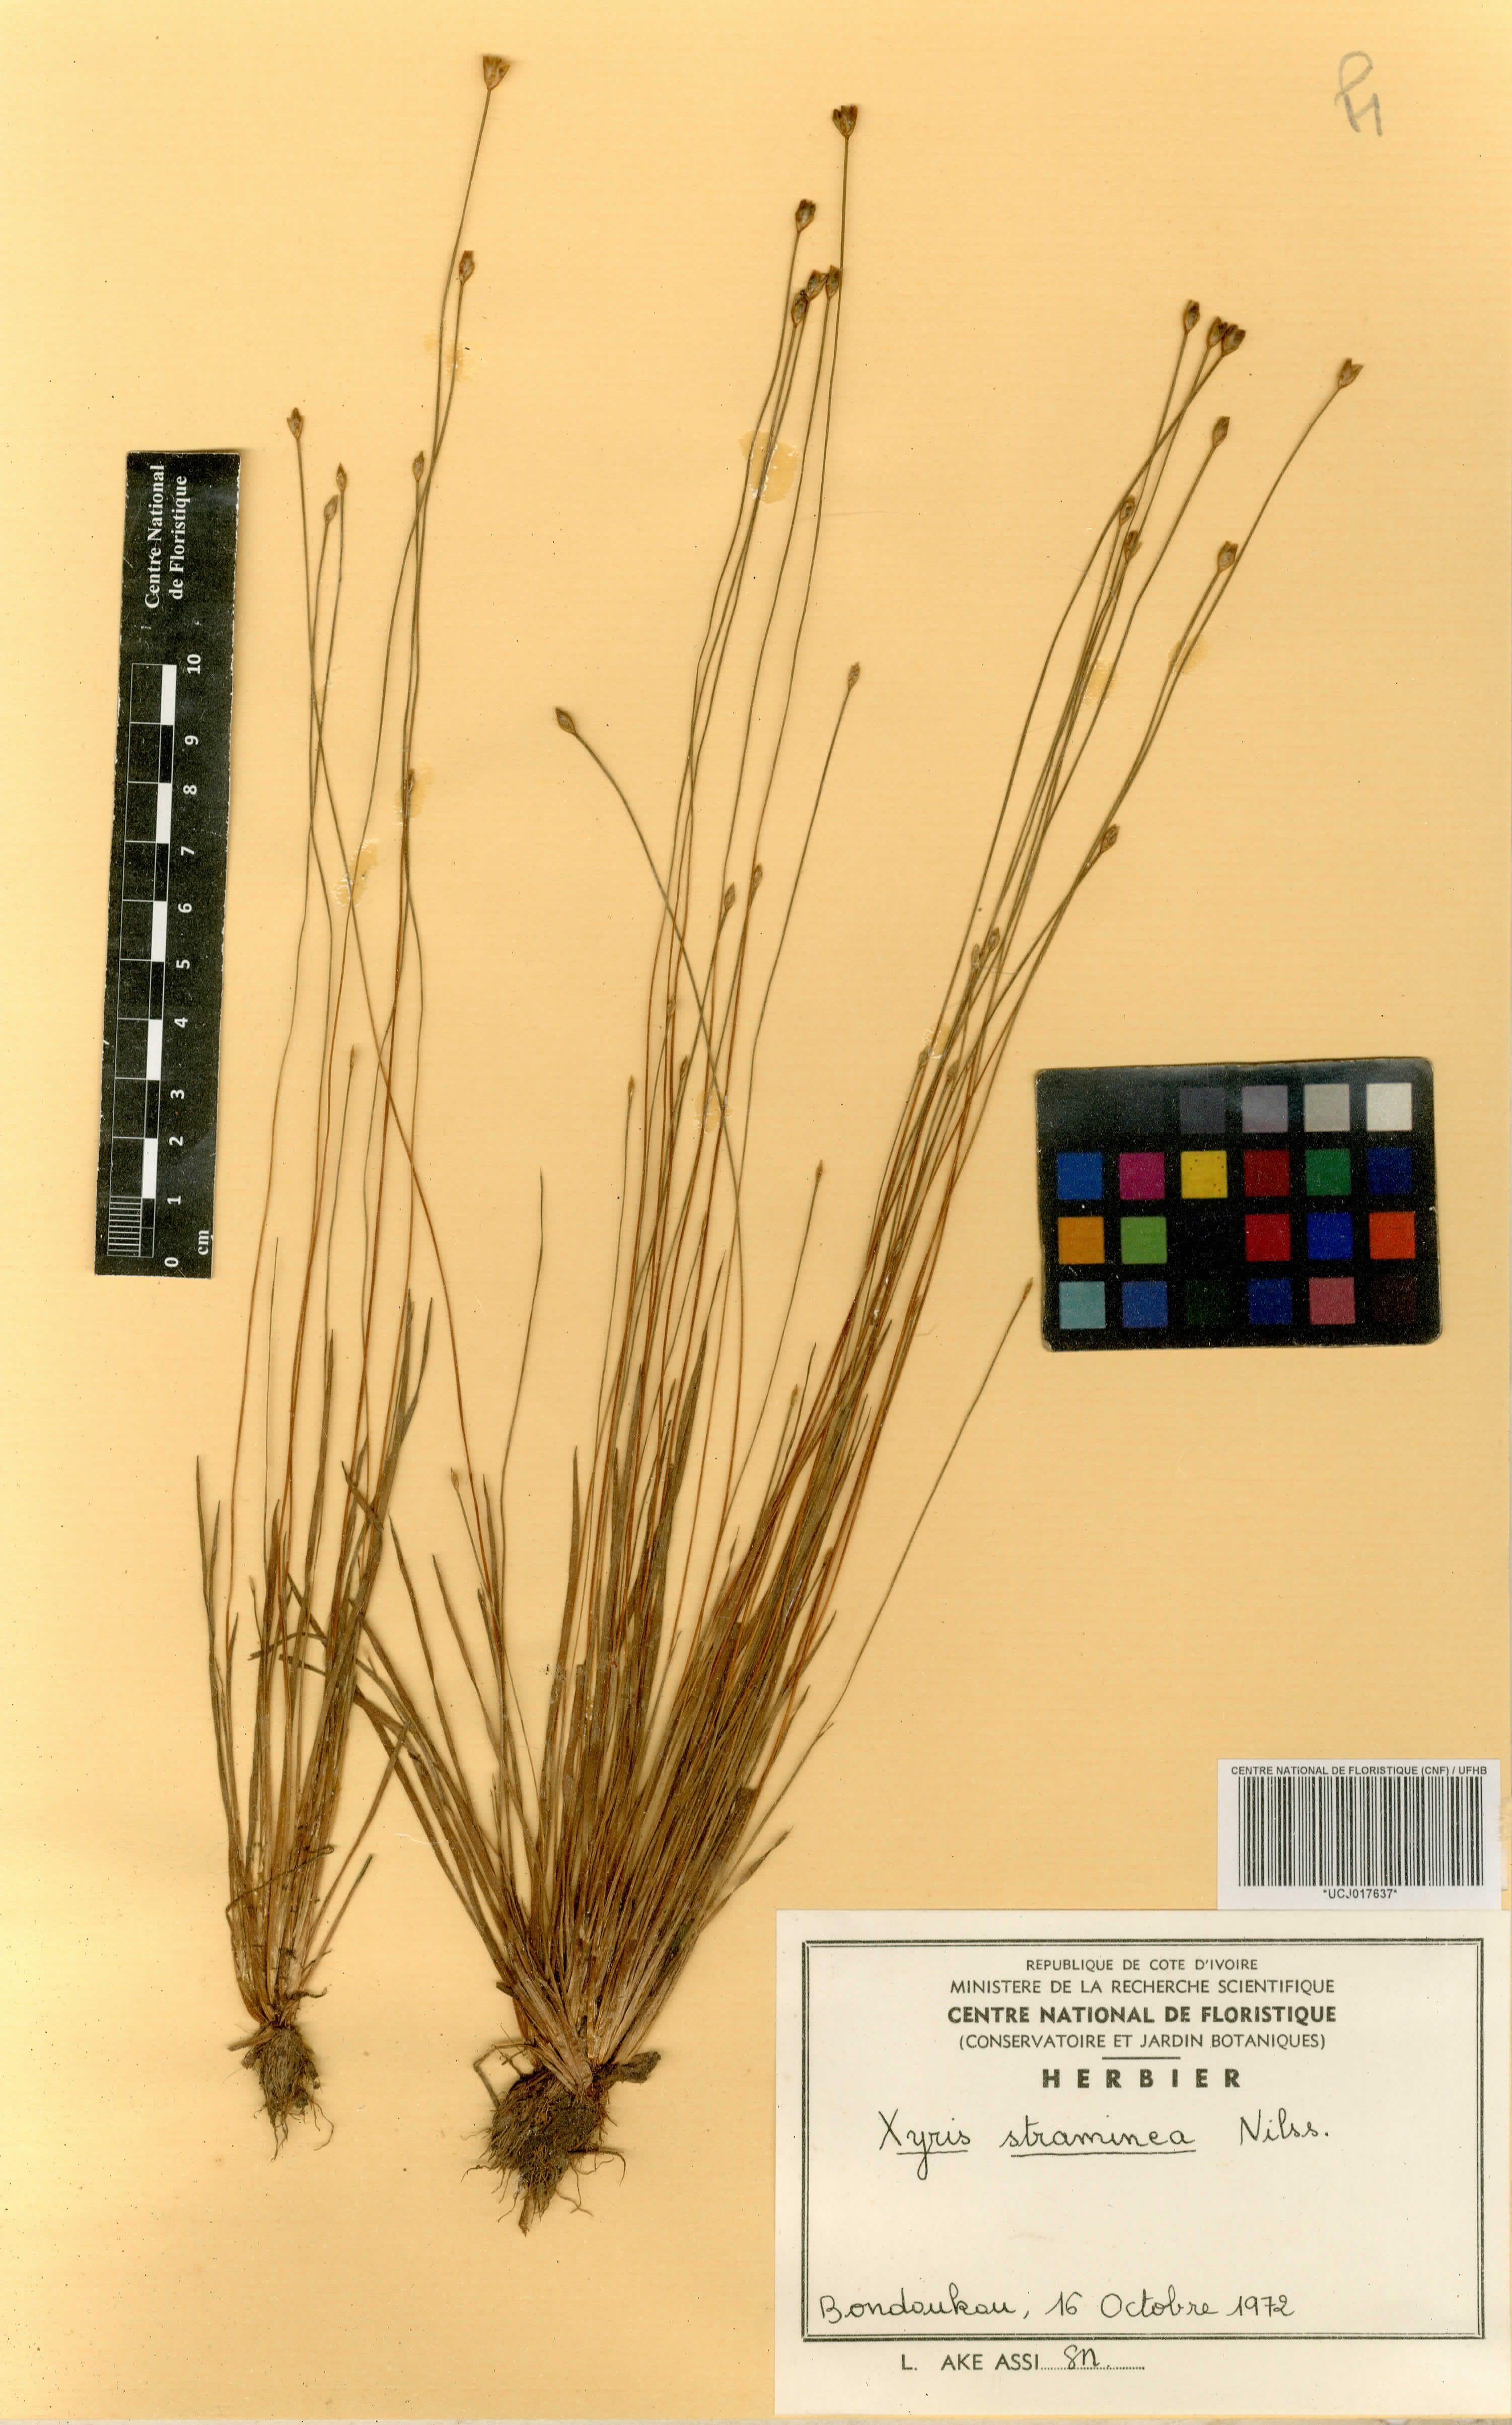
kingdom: Plantae
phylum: Tracheophyta
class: Liliopsida
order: Poales
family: Xyridaceae
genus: Xyris
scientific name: Xyris straminea
